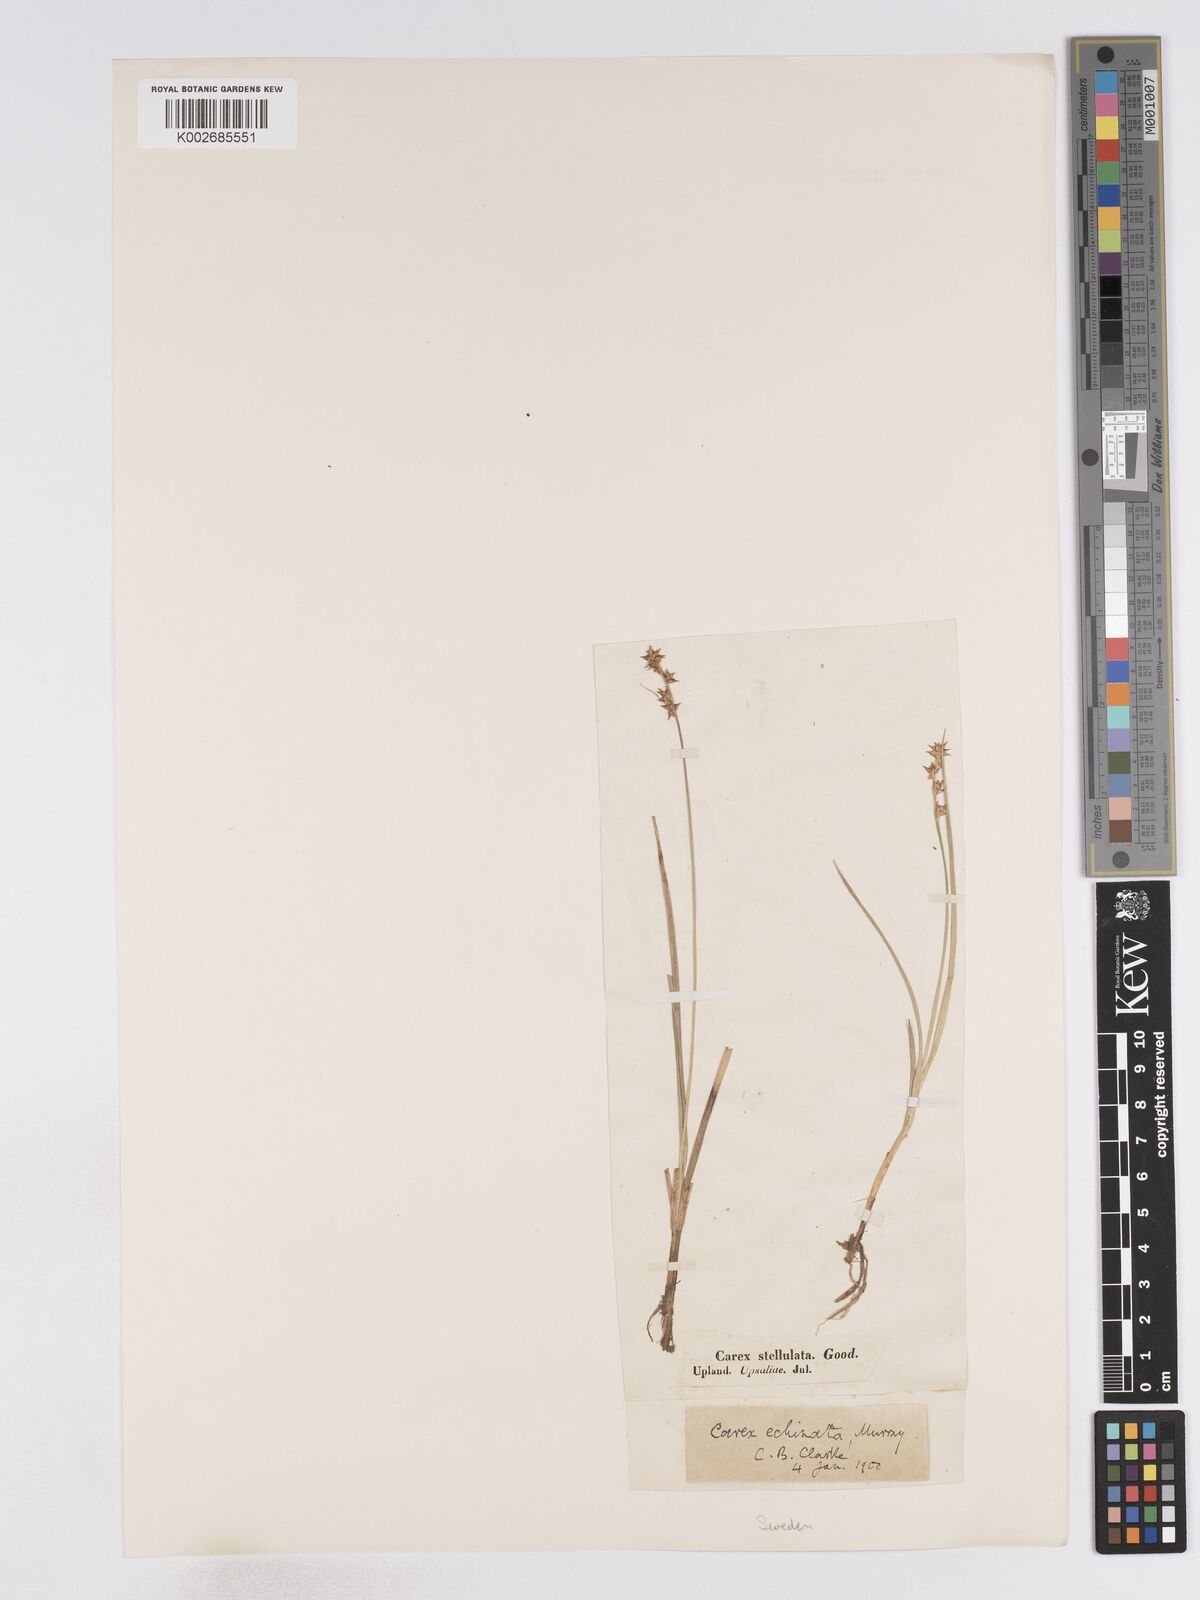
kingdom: Plantae
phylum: Tracheophyta
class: Liliopsida
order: Poales
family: Cyperaceae
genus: Carex
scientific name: Carex echinata
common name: Star sedge
